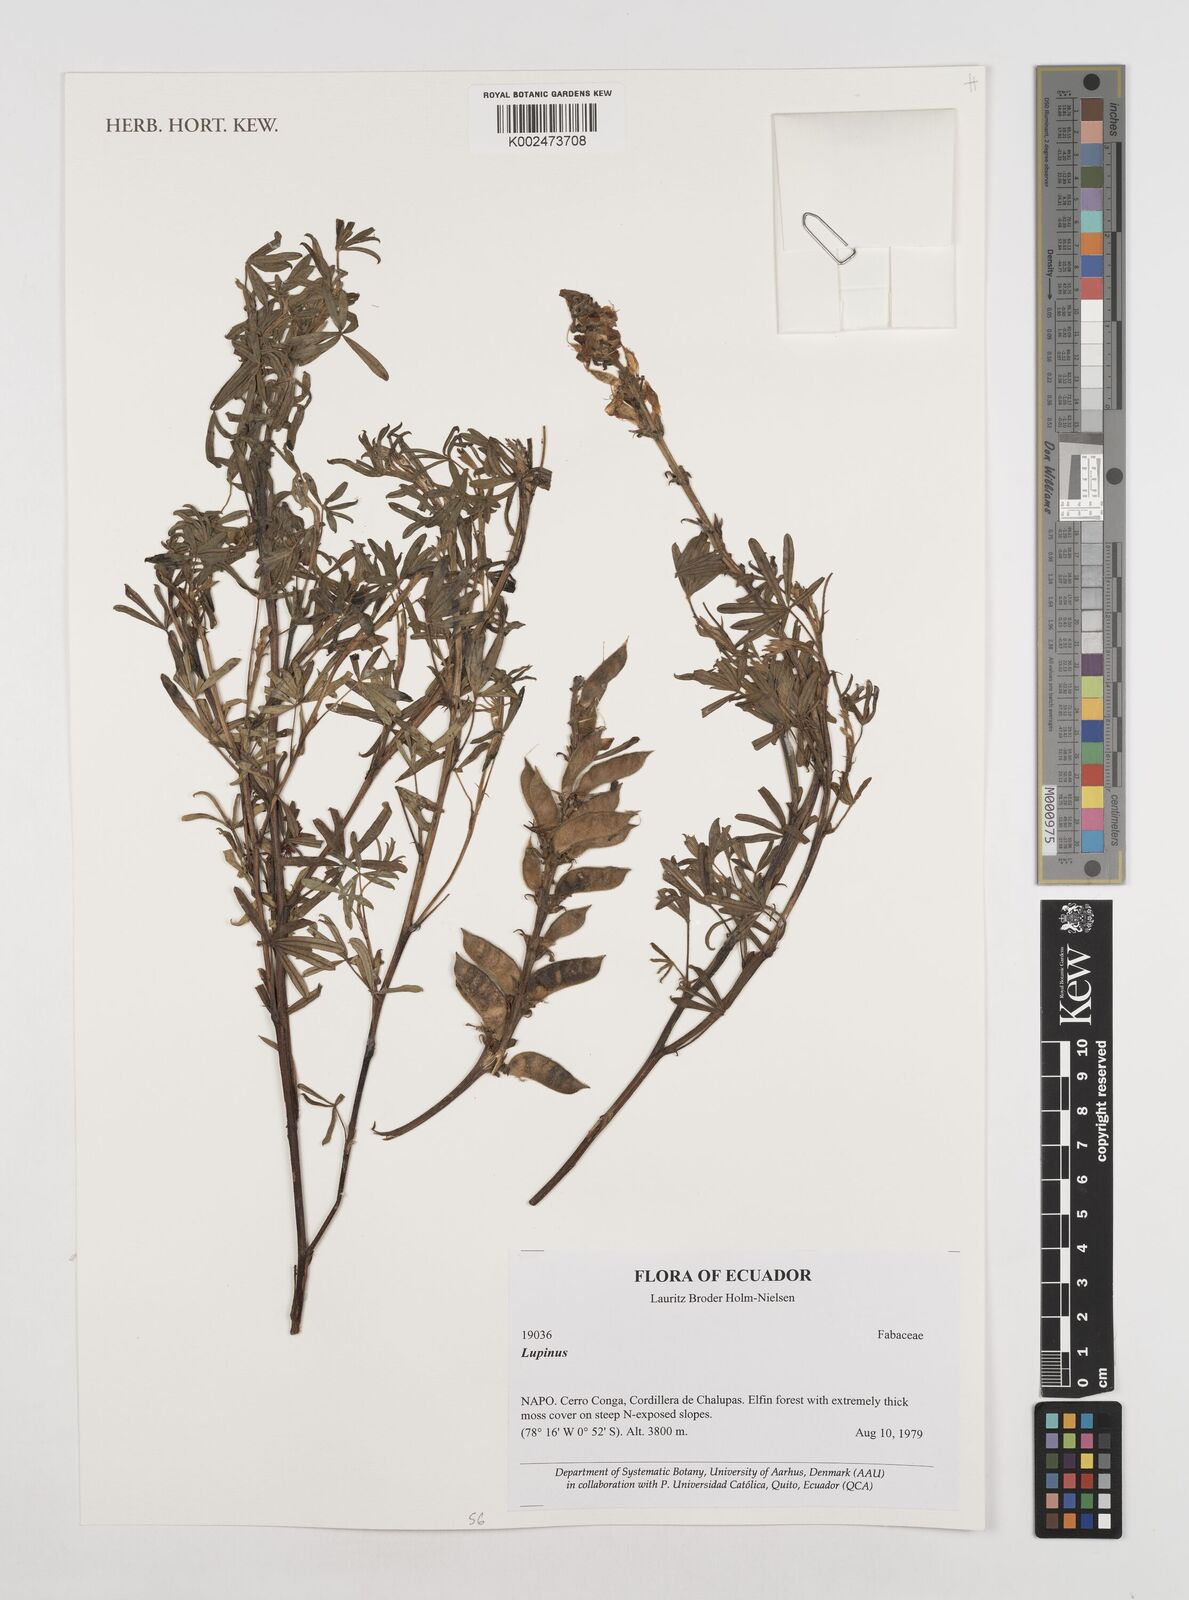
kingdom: Plantae
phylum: Tracheophyta
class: Magnoliopsida
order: Fabales
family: Fabaceae
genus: Lupinus
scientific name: Lupinus
